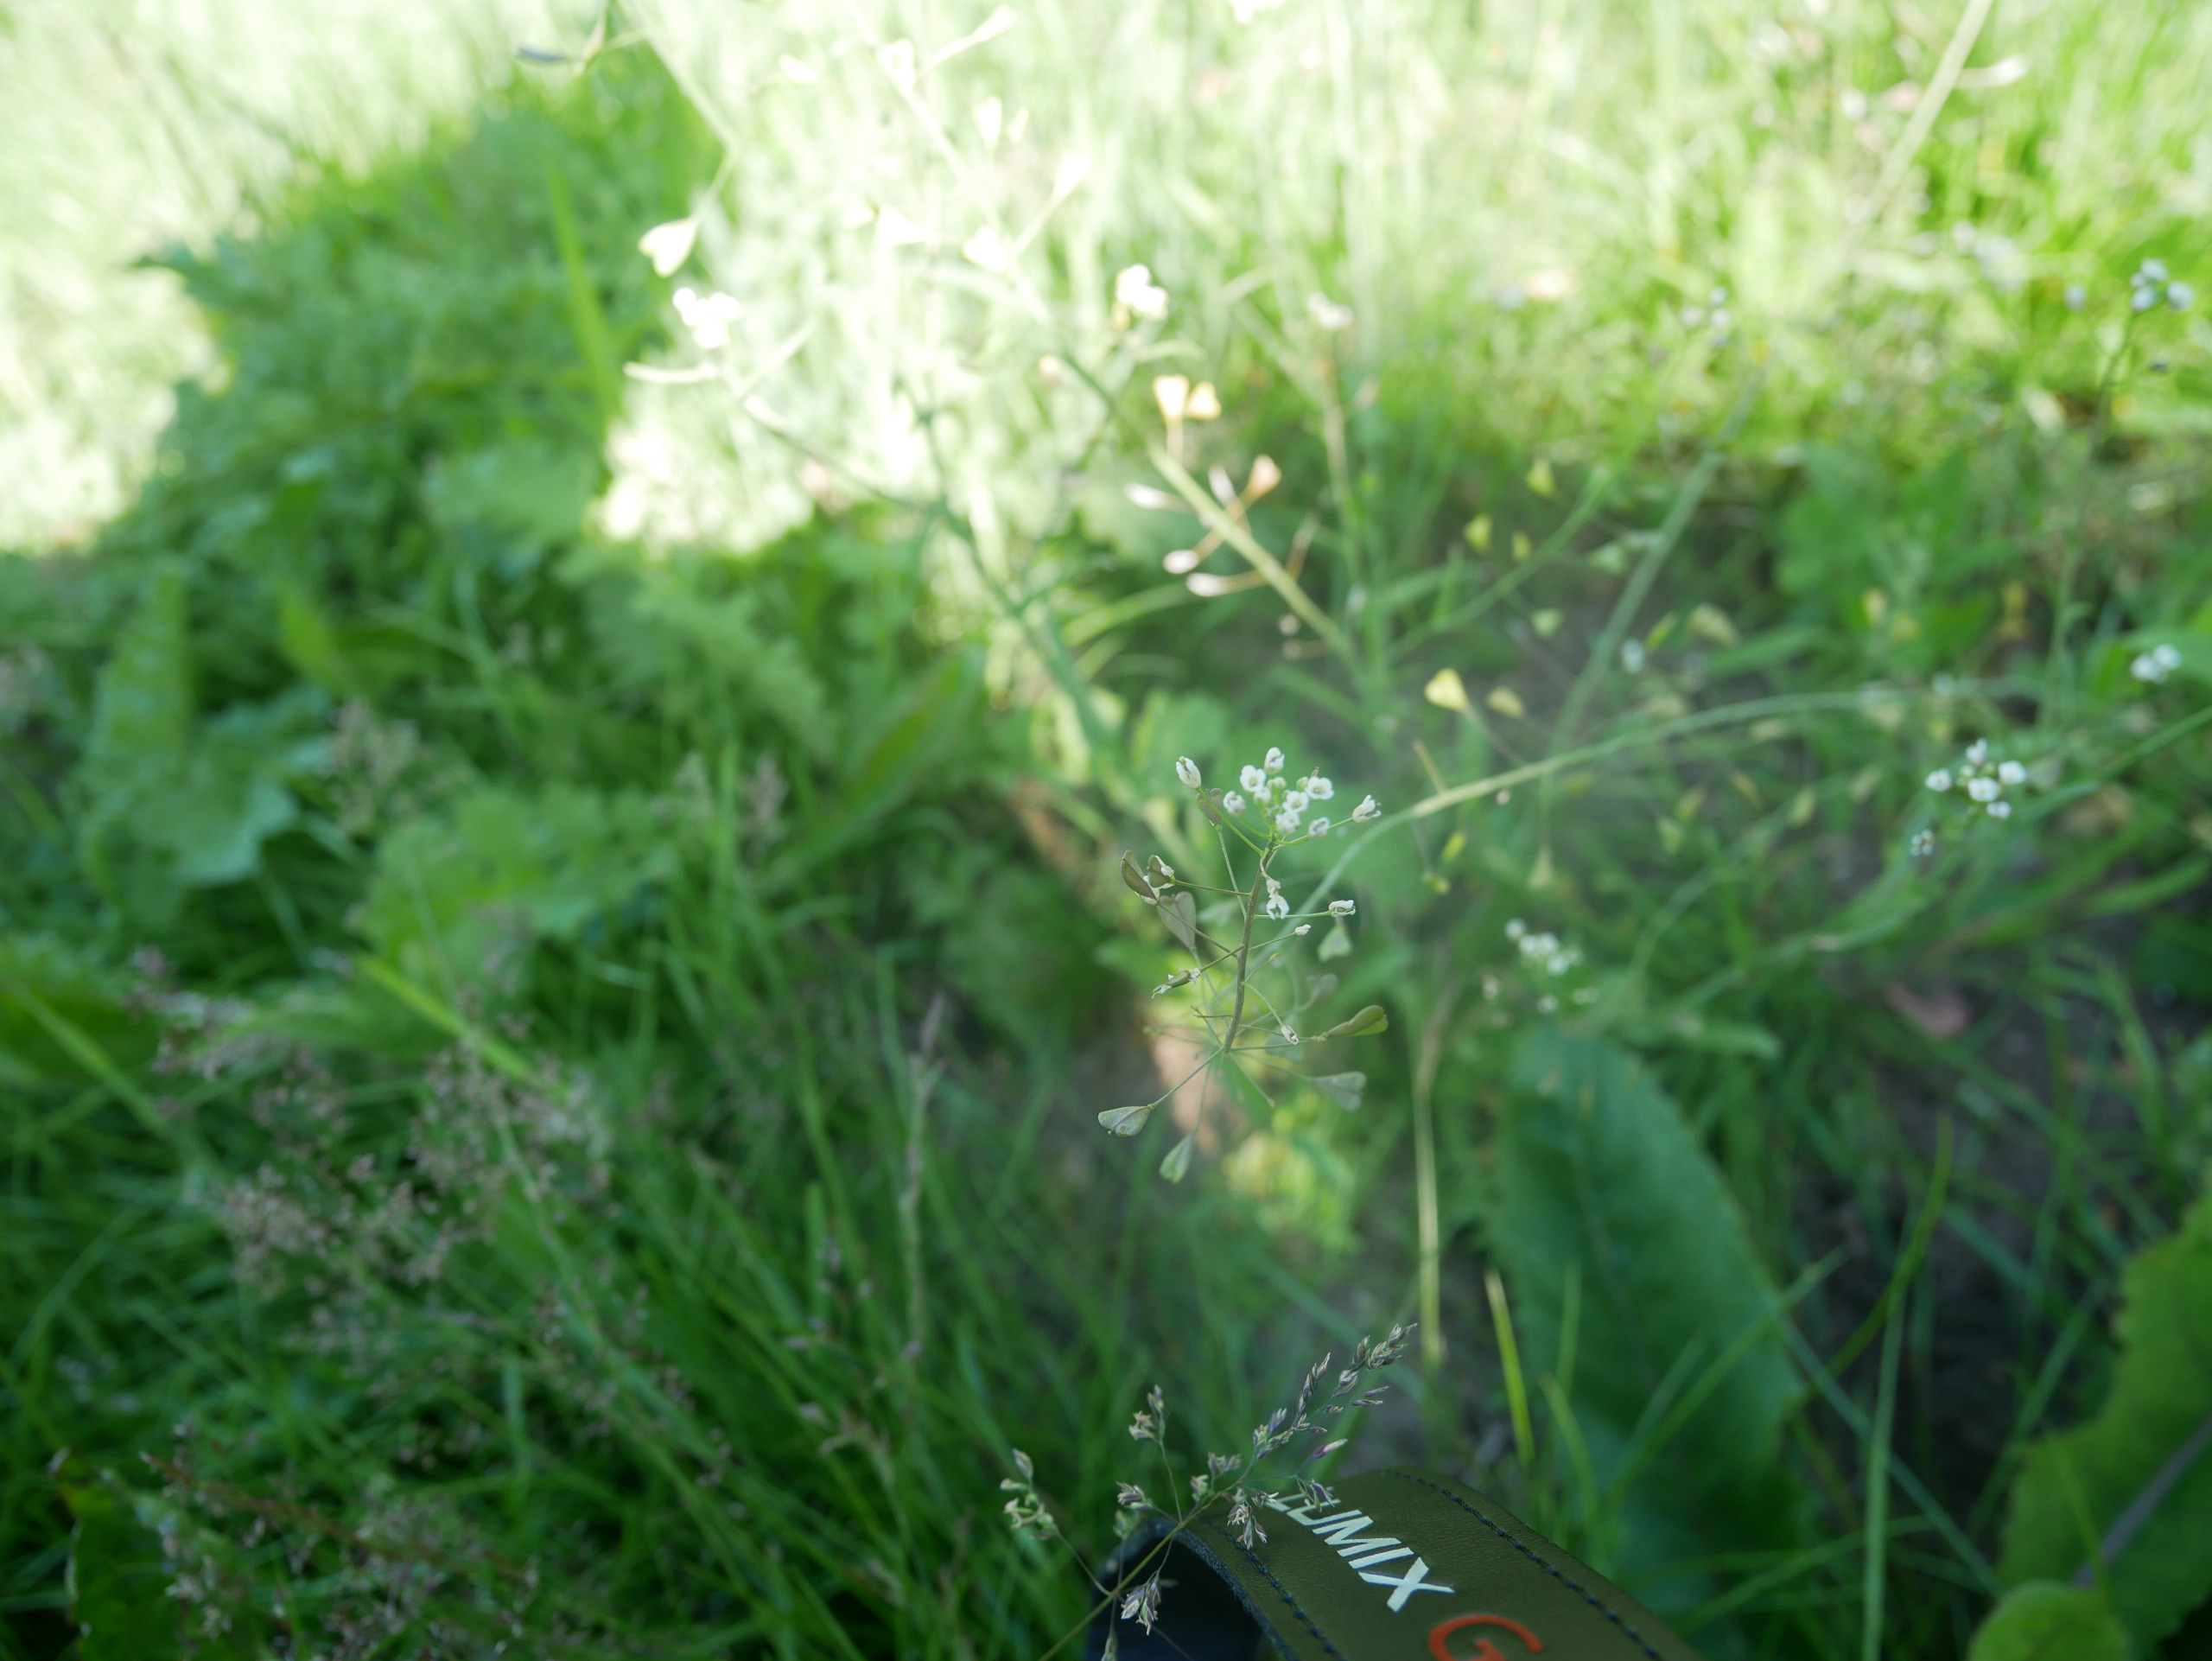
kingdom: Plantae
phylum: Tracheophyta
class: Magnoliopsida
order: Brassicales
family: Brassicaceae
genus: Capsella
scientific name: Capsella bursa-pastoris
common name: Hyrdetaske
